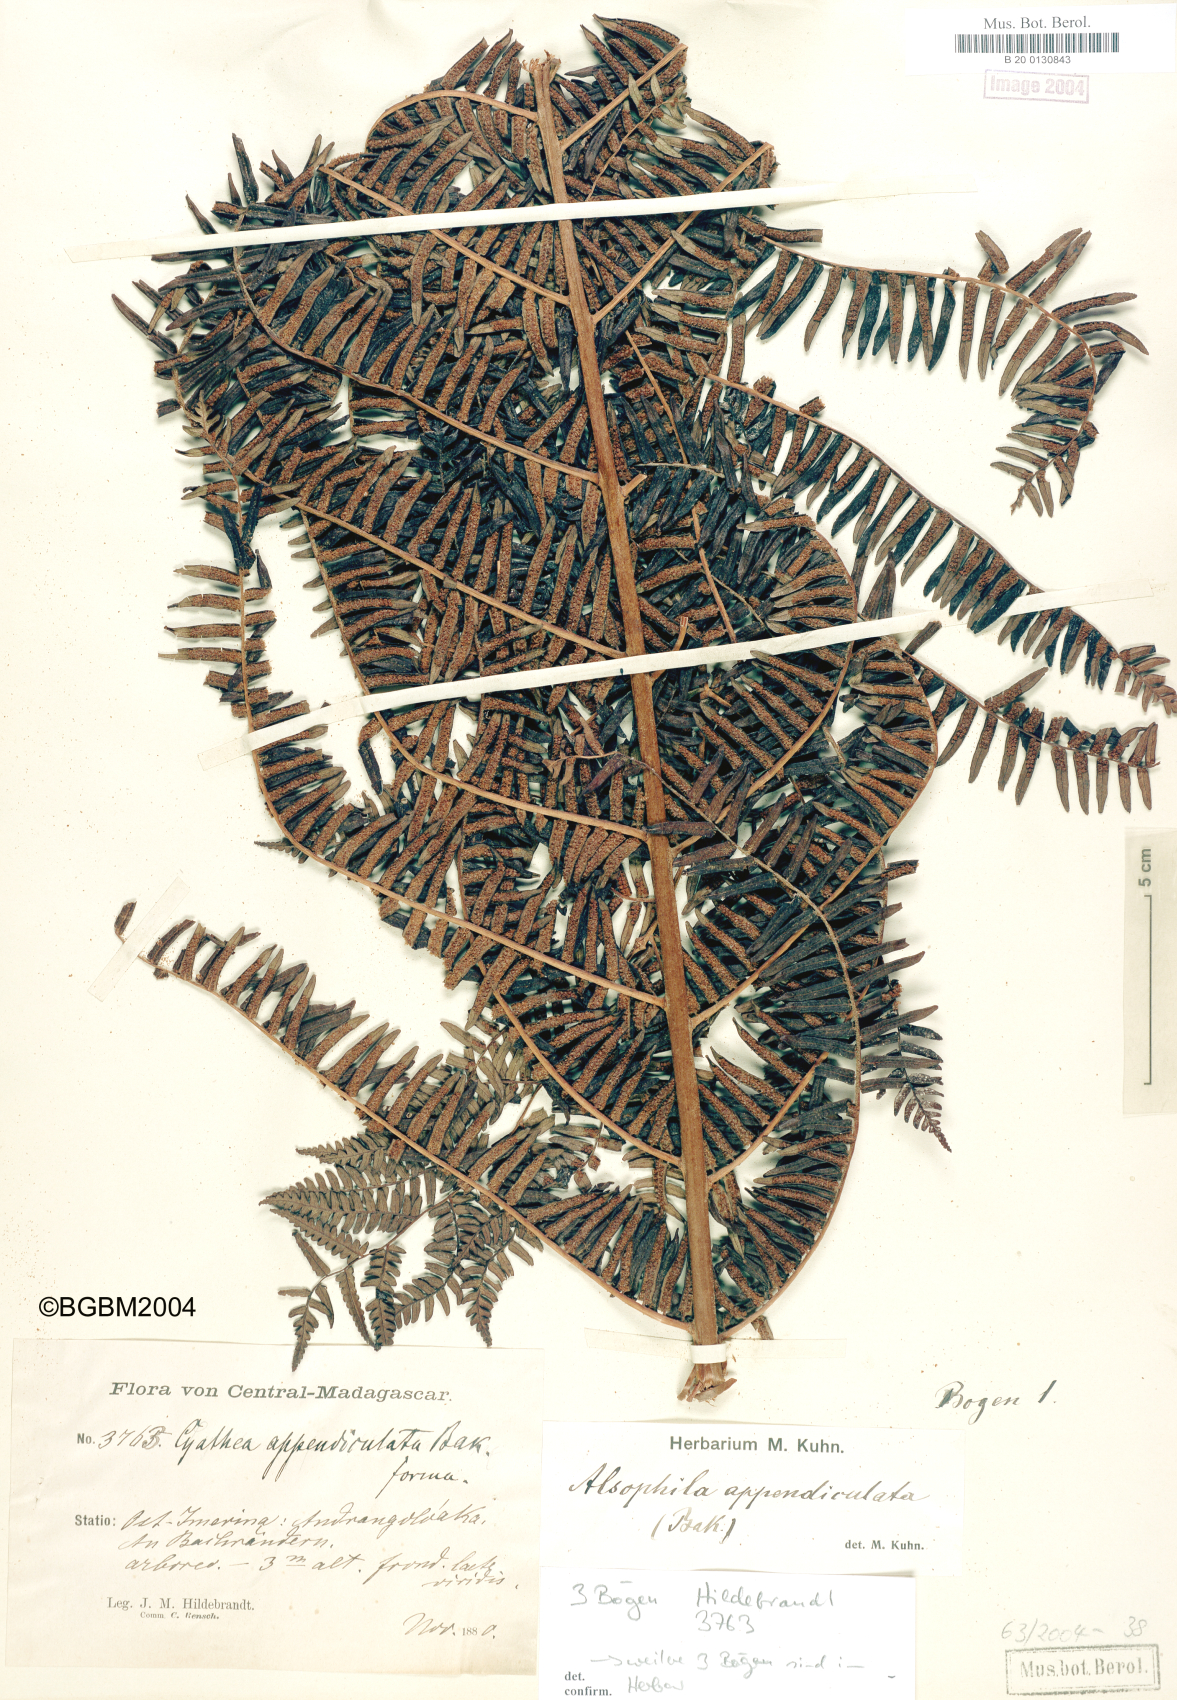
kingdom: Plantae
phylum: Tracheophyta
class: Polypodiopsida
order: Cyatheales
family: Cyatheaceae
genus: Alsophila
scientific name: Alsophila appendiculata
